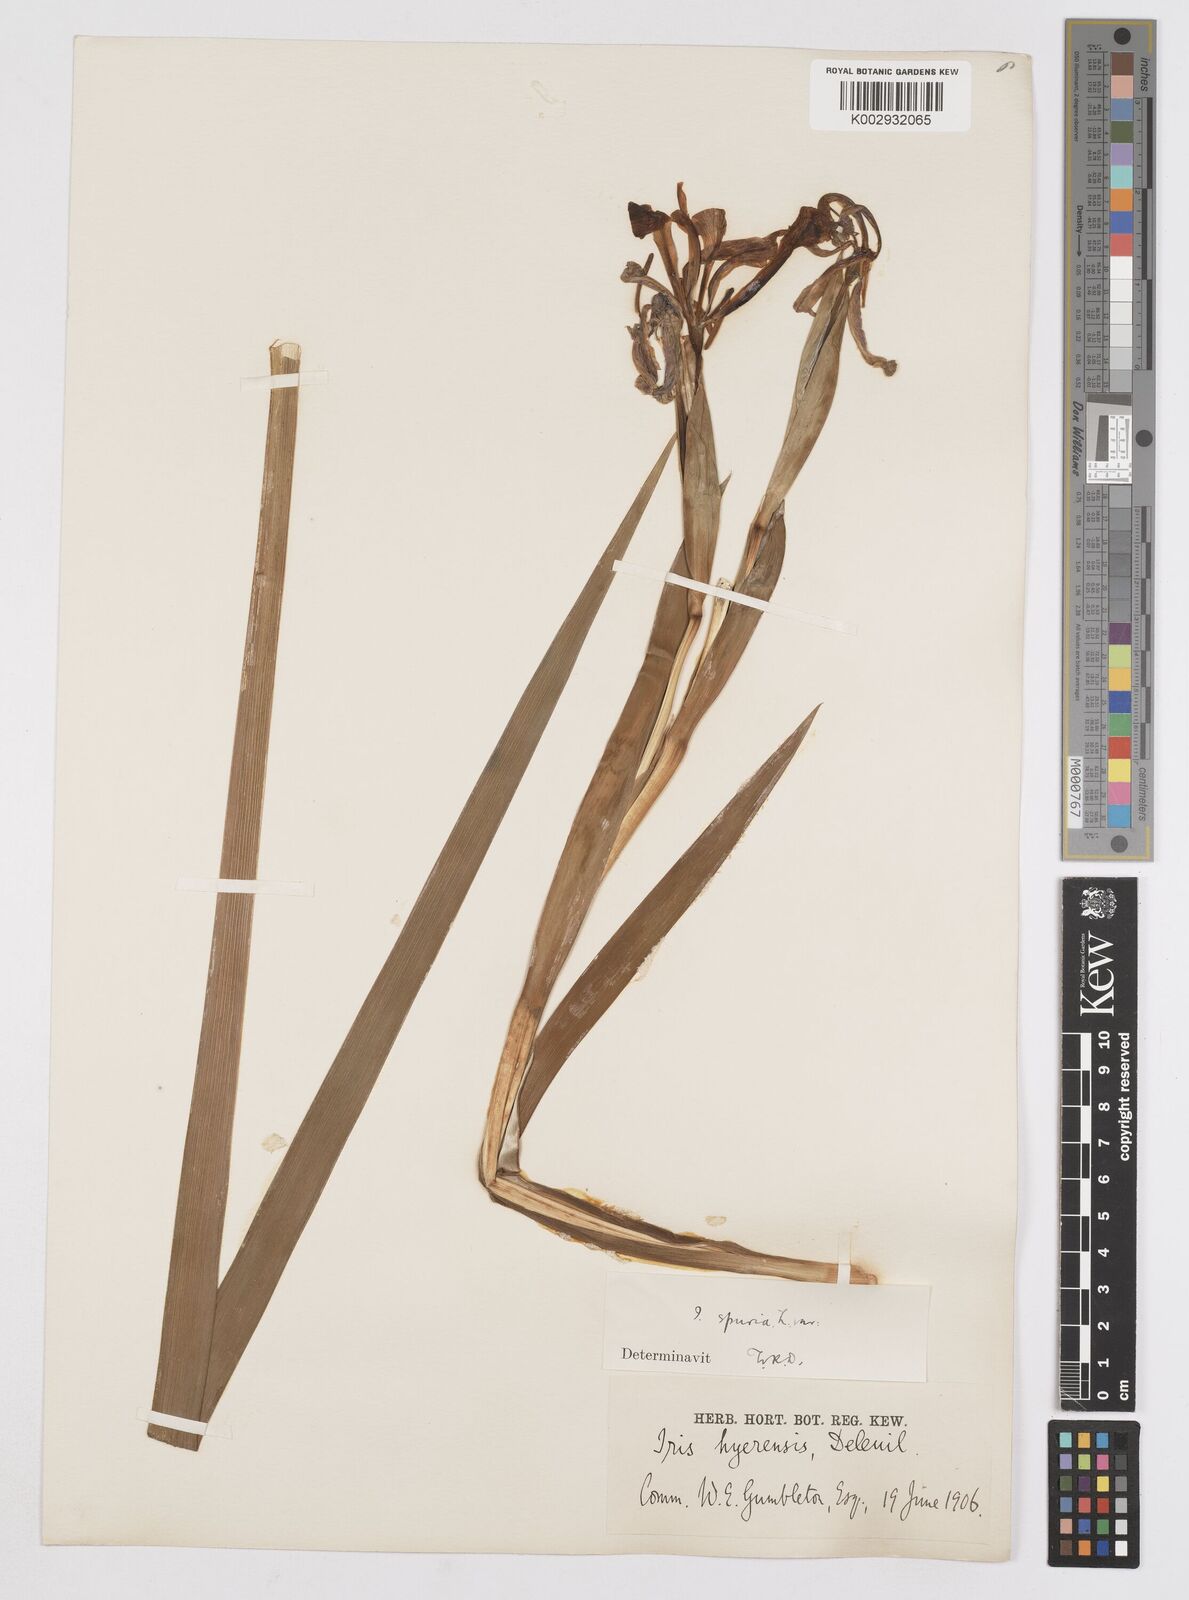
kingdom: Plantae
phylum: Tracheophyta
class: Liliopsida
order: Asparagales
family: Iridaceae
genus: Iris
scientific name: Iris
